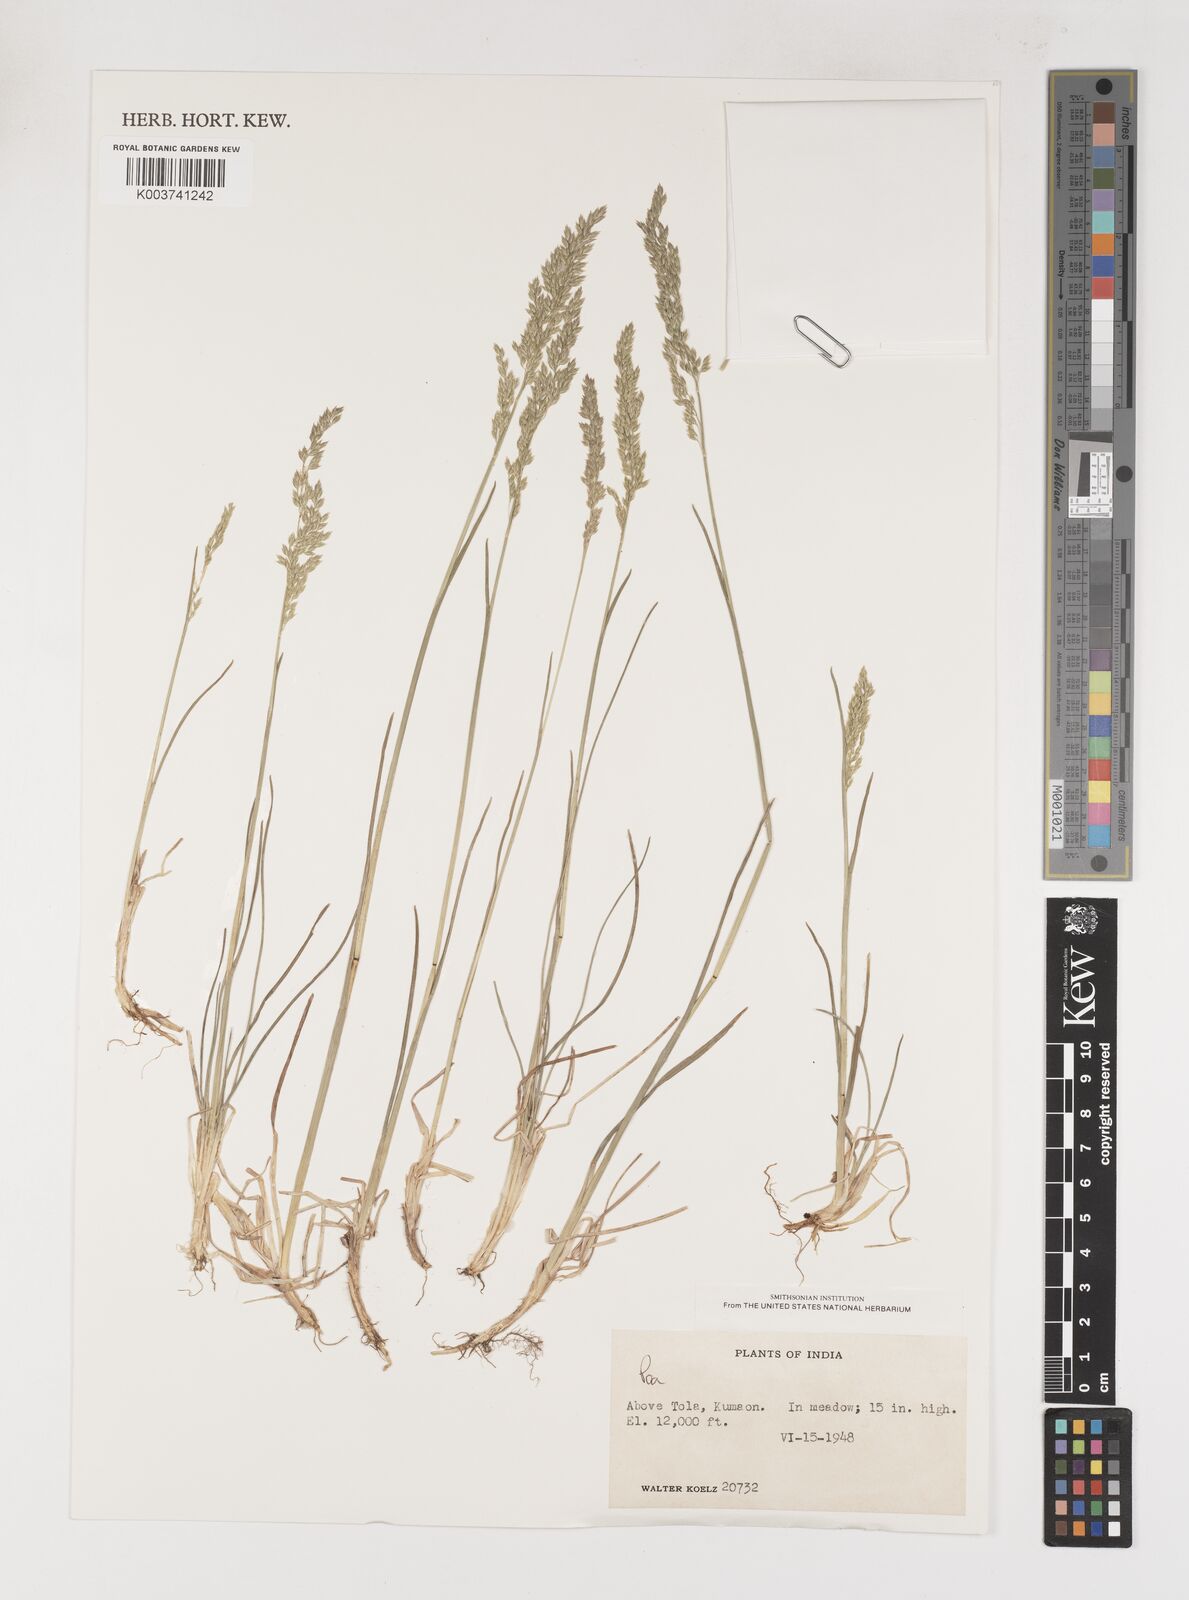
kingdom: Plantae
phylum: Tracheophyta
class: Liliopsida
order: Poales
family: Poaceae
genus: Poa
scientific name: Poa
